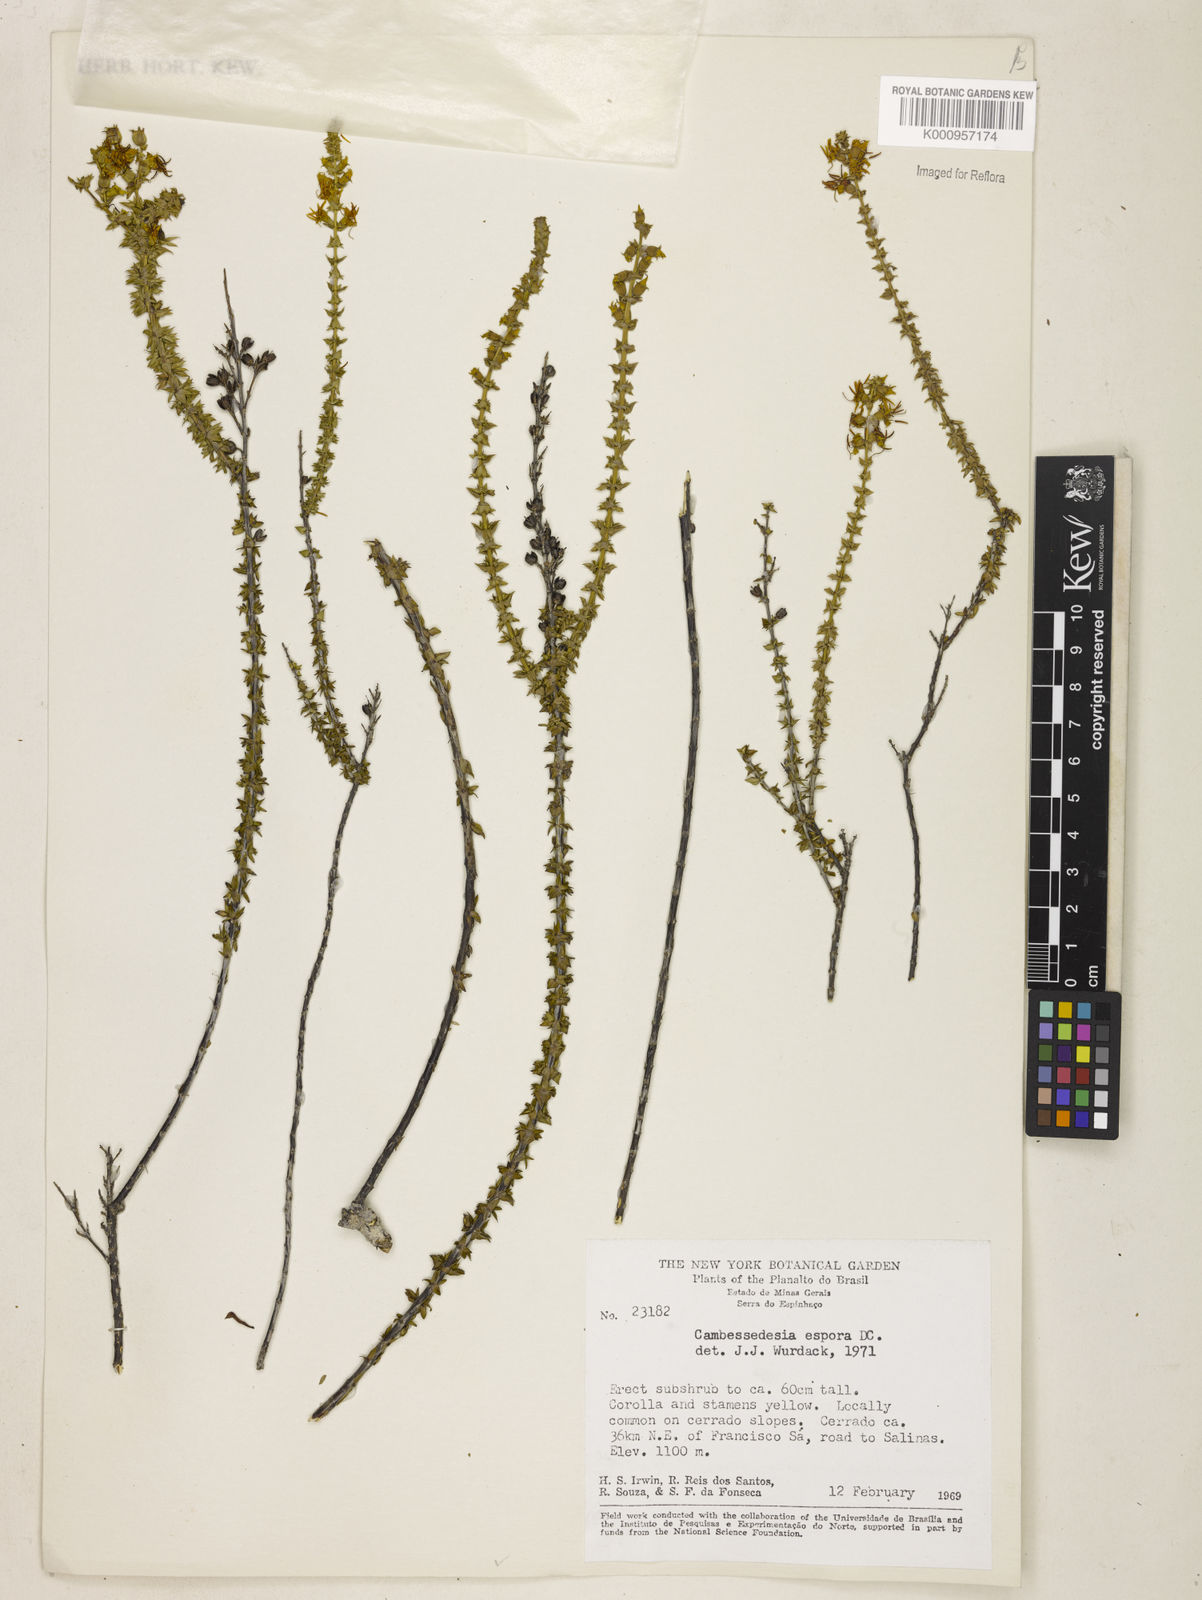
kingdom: Plantae
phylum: Tracheophyta
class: Magnoliopsida
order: Myrtales
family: Melastomataceae
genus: Cambessedesia
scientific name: Cambessedesia espora
